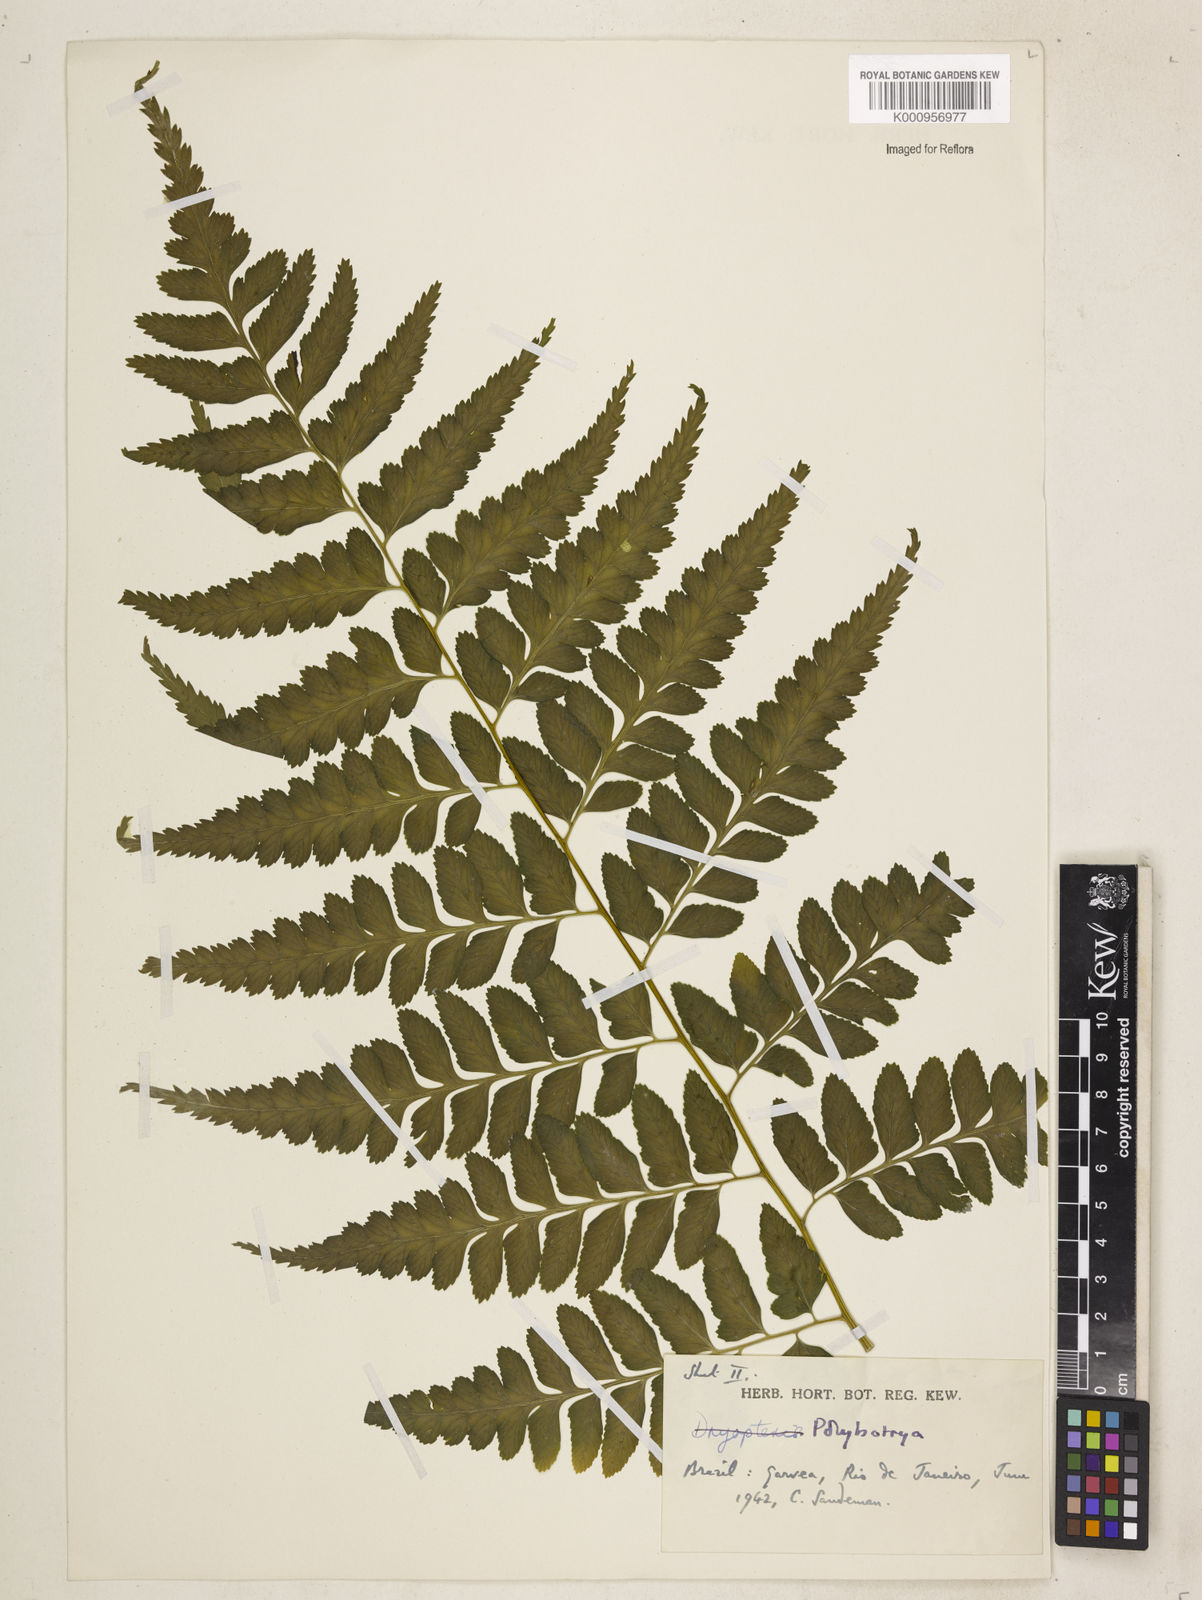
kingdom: Plantae
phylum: Tracheophyta
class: Polypodiopsida
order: Polypodiales
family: Dryopteridaceae
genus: Polybotrya
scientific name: Polybotrya osmundacea
